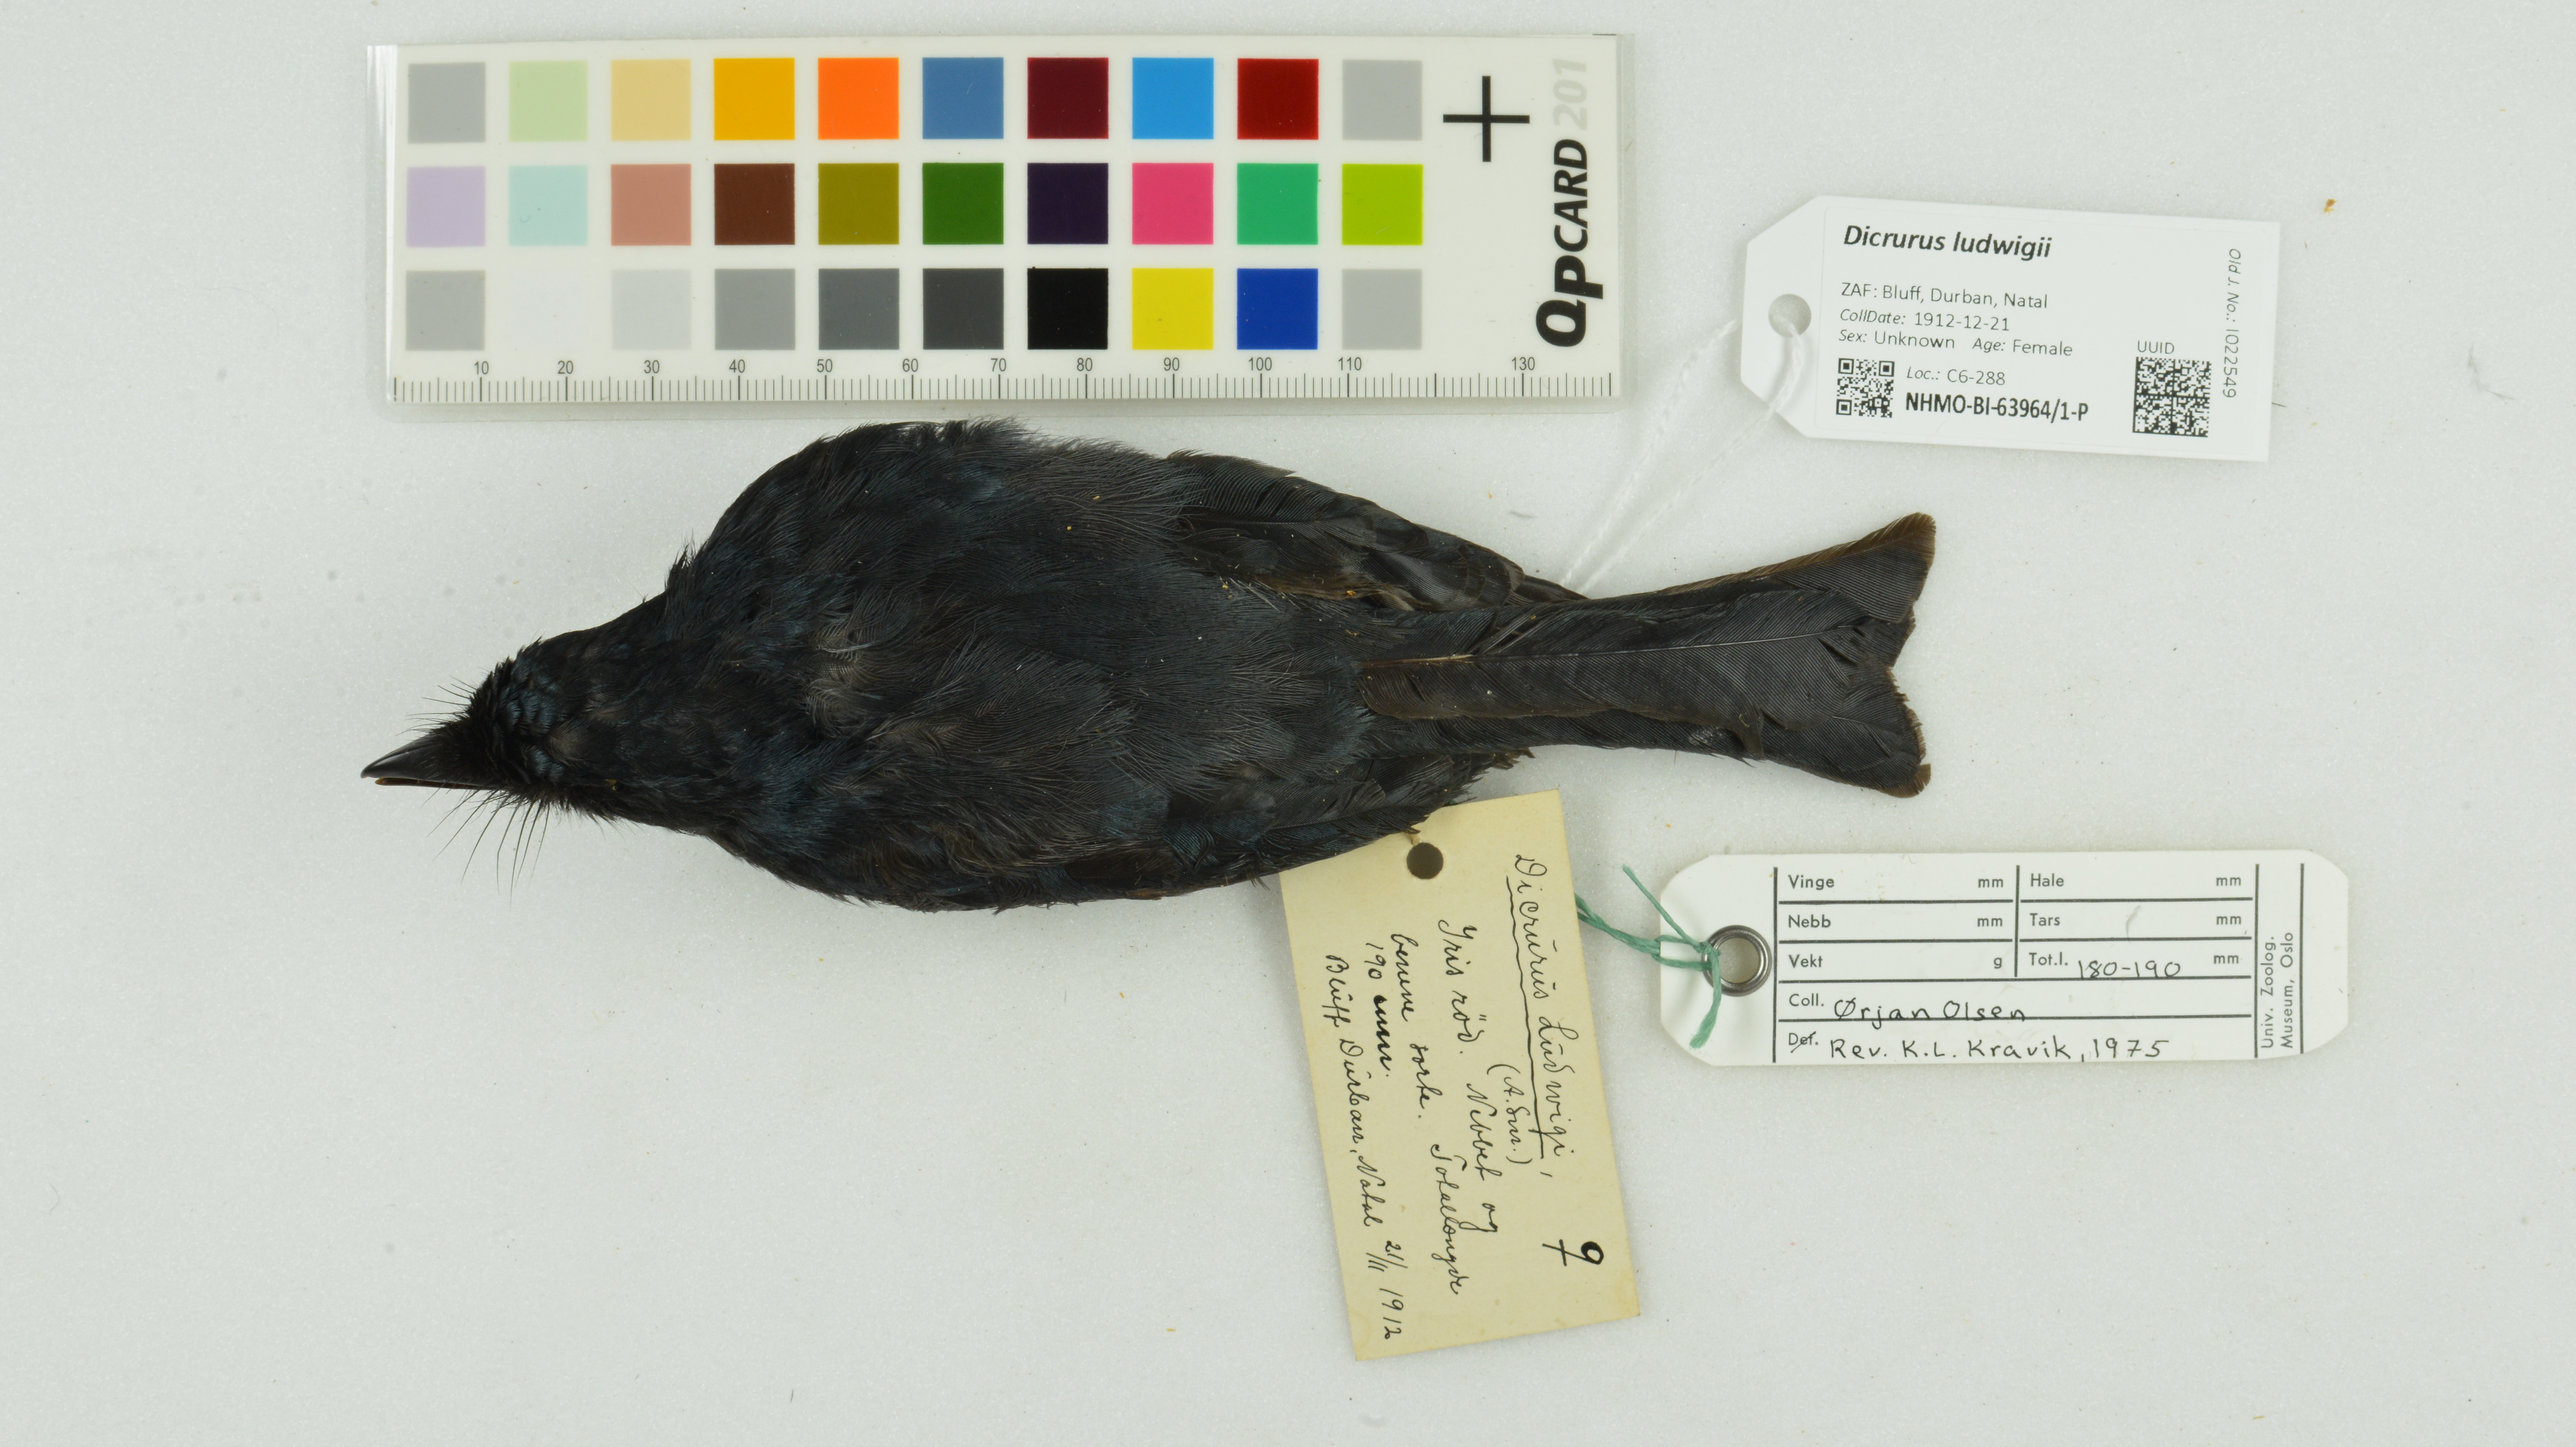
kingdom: Animalia
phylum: Chordata
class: Aves
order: Passeriformes
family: Dicruridae
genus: Dicrurus
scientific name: Dicrurus ludwigii
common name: Square-tailed drongo
